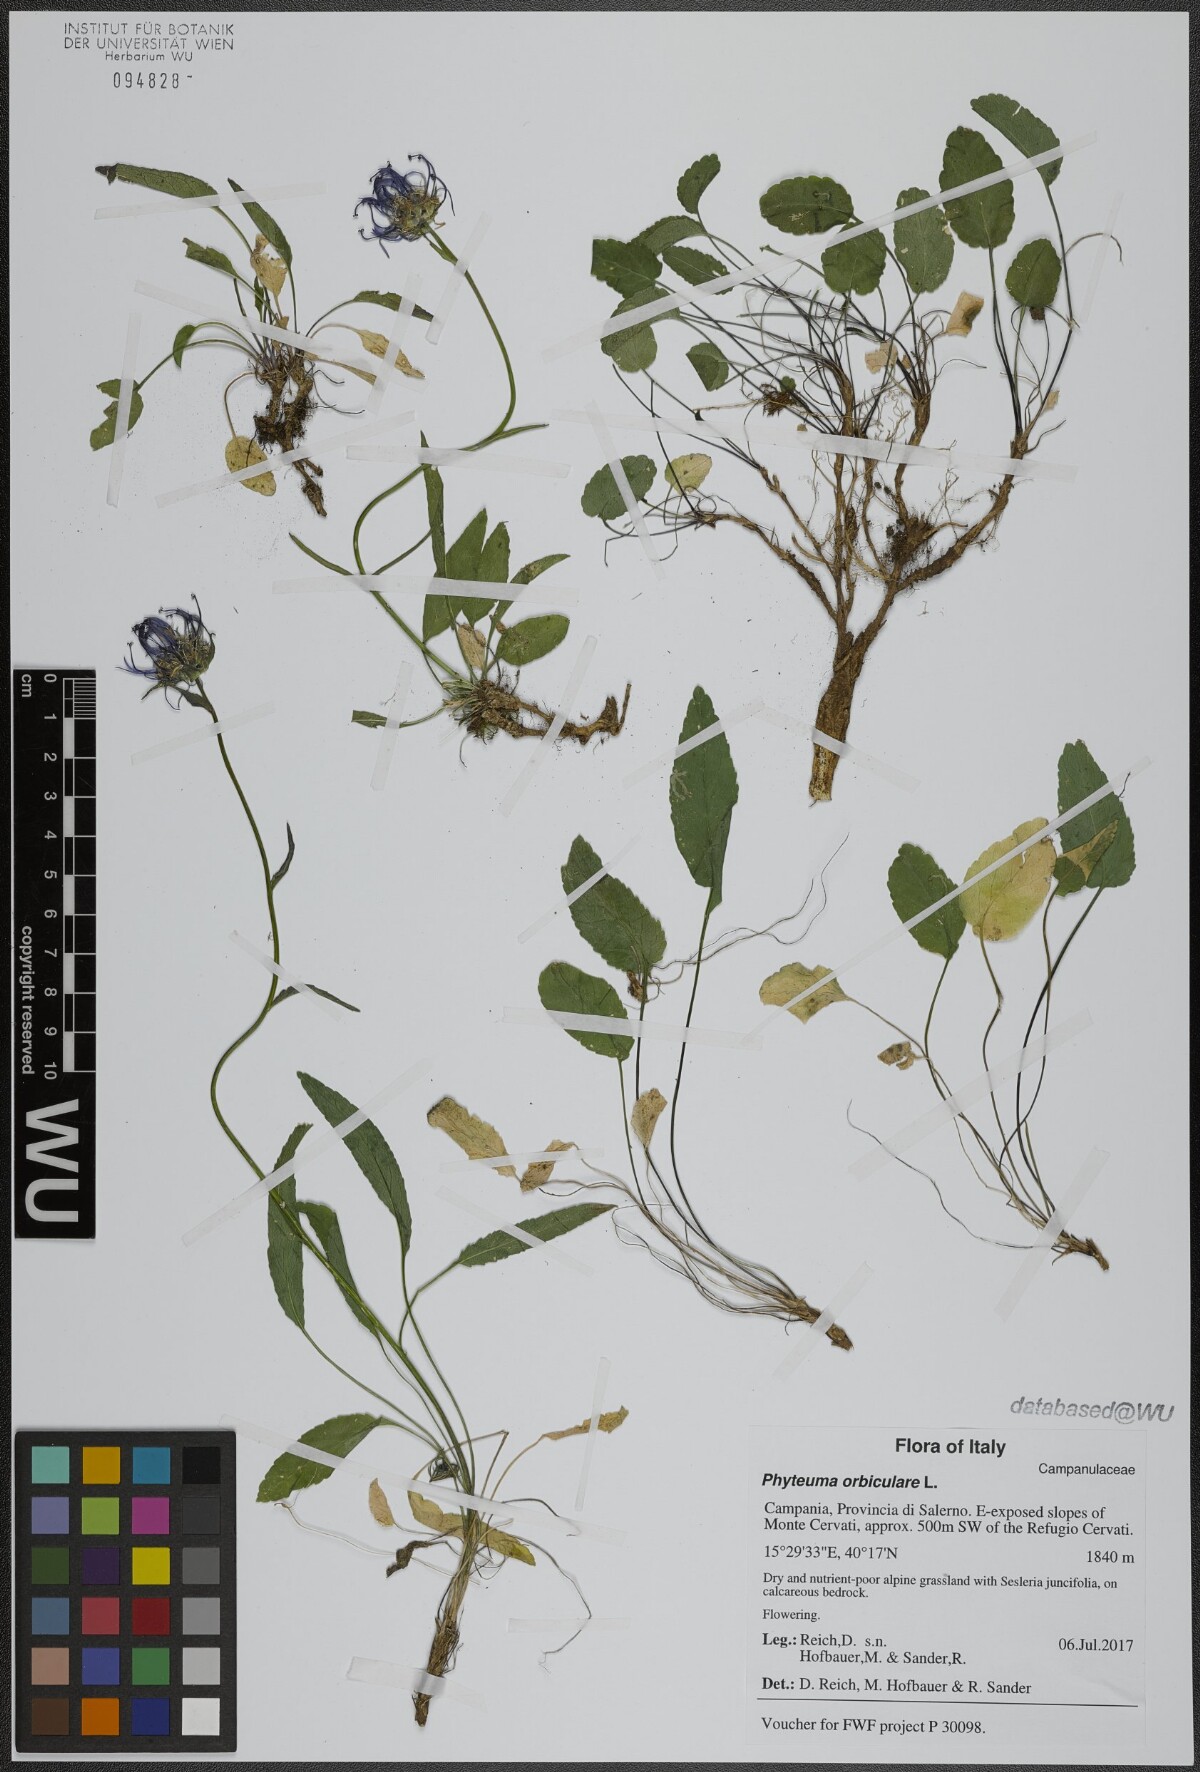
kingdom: Plantae
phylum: Tracheophyta
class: Magnoliopsida
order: Asterales
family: Campanulaceae
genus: Phyteuma
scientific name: Phyteuma orbiculare
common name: Round-headed rampion
